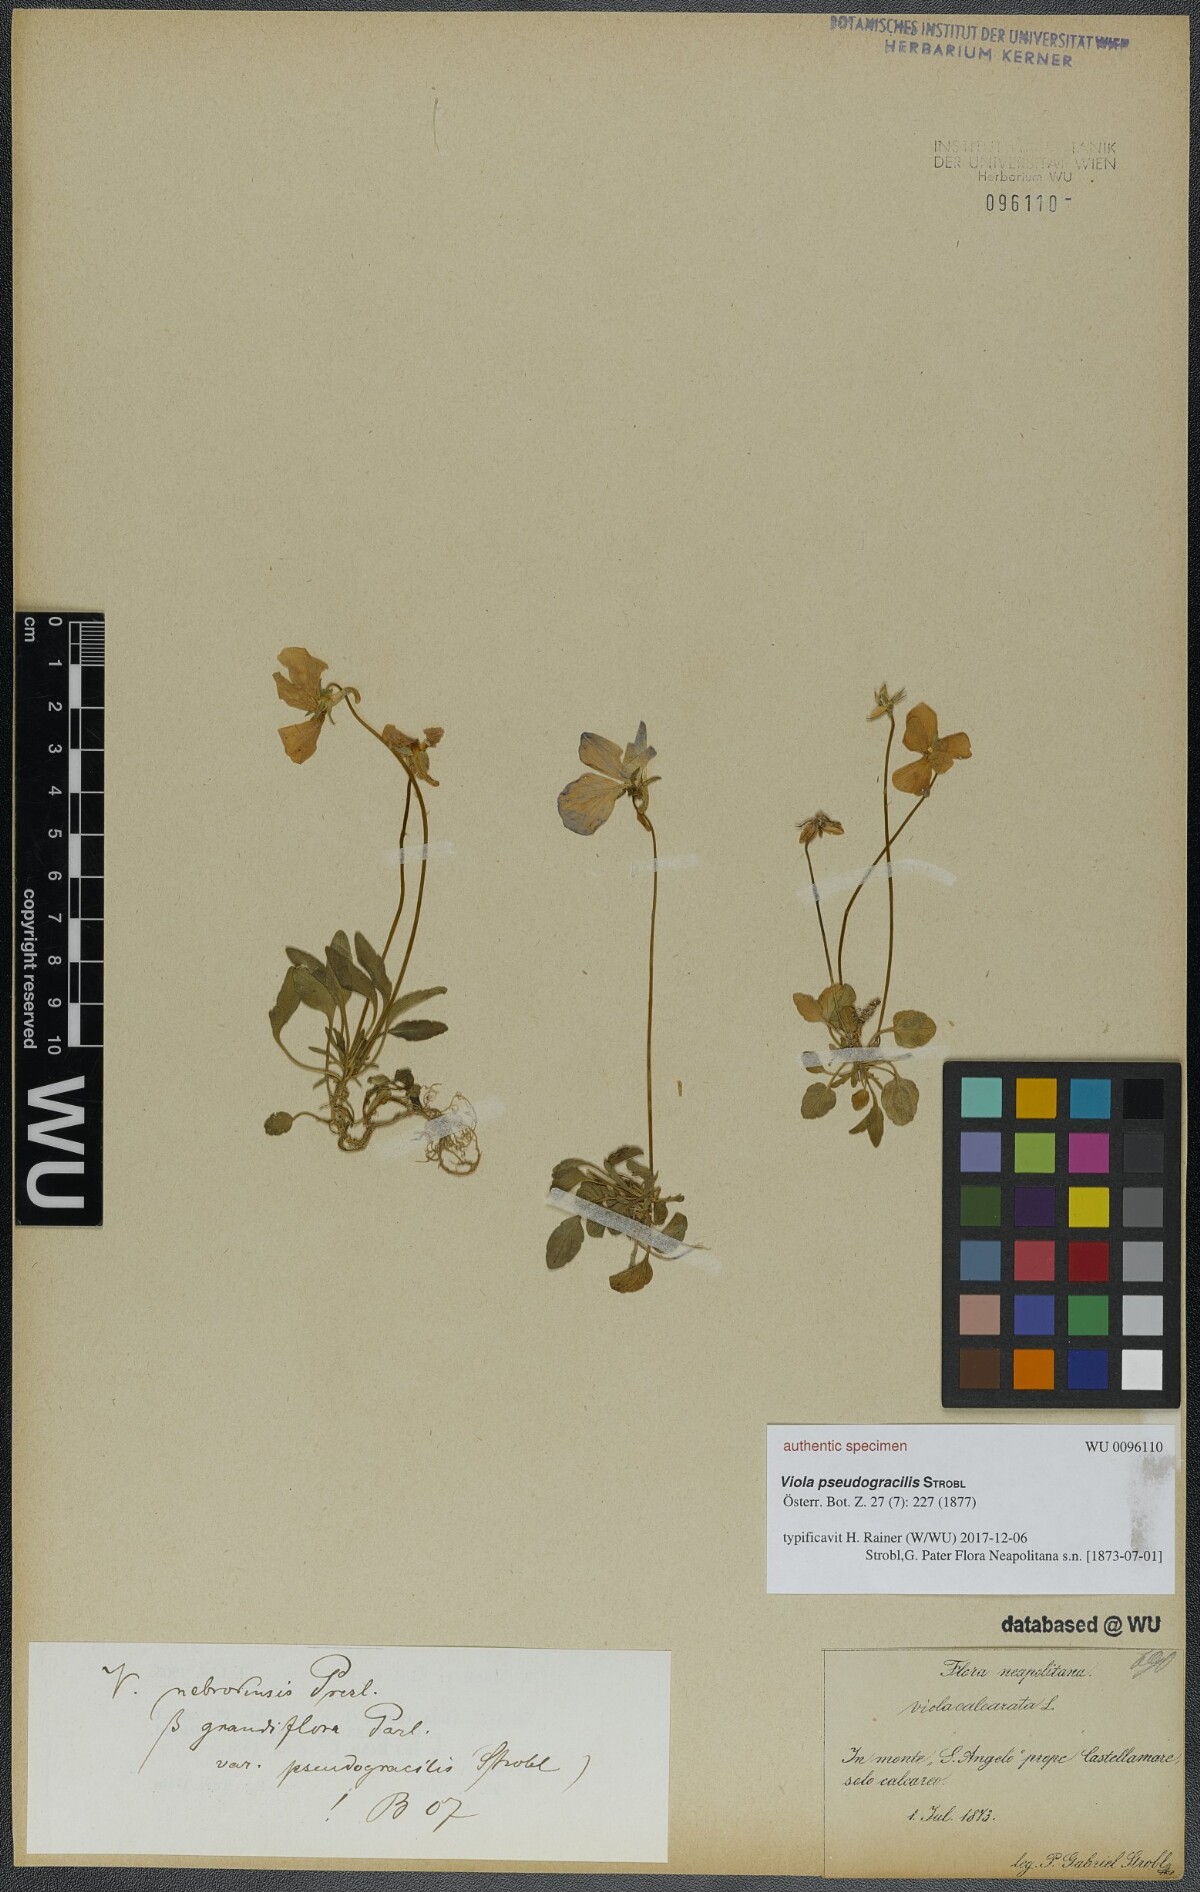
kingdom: Plantae
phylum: Tracheophyta
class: Magnoliopsida
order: Malpighiales
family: Violaceae
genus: Viola
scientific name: Viola pseudogracilis
